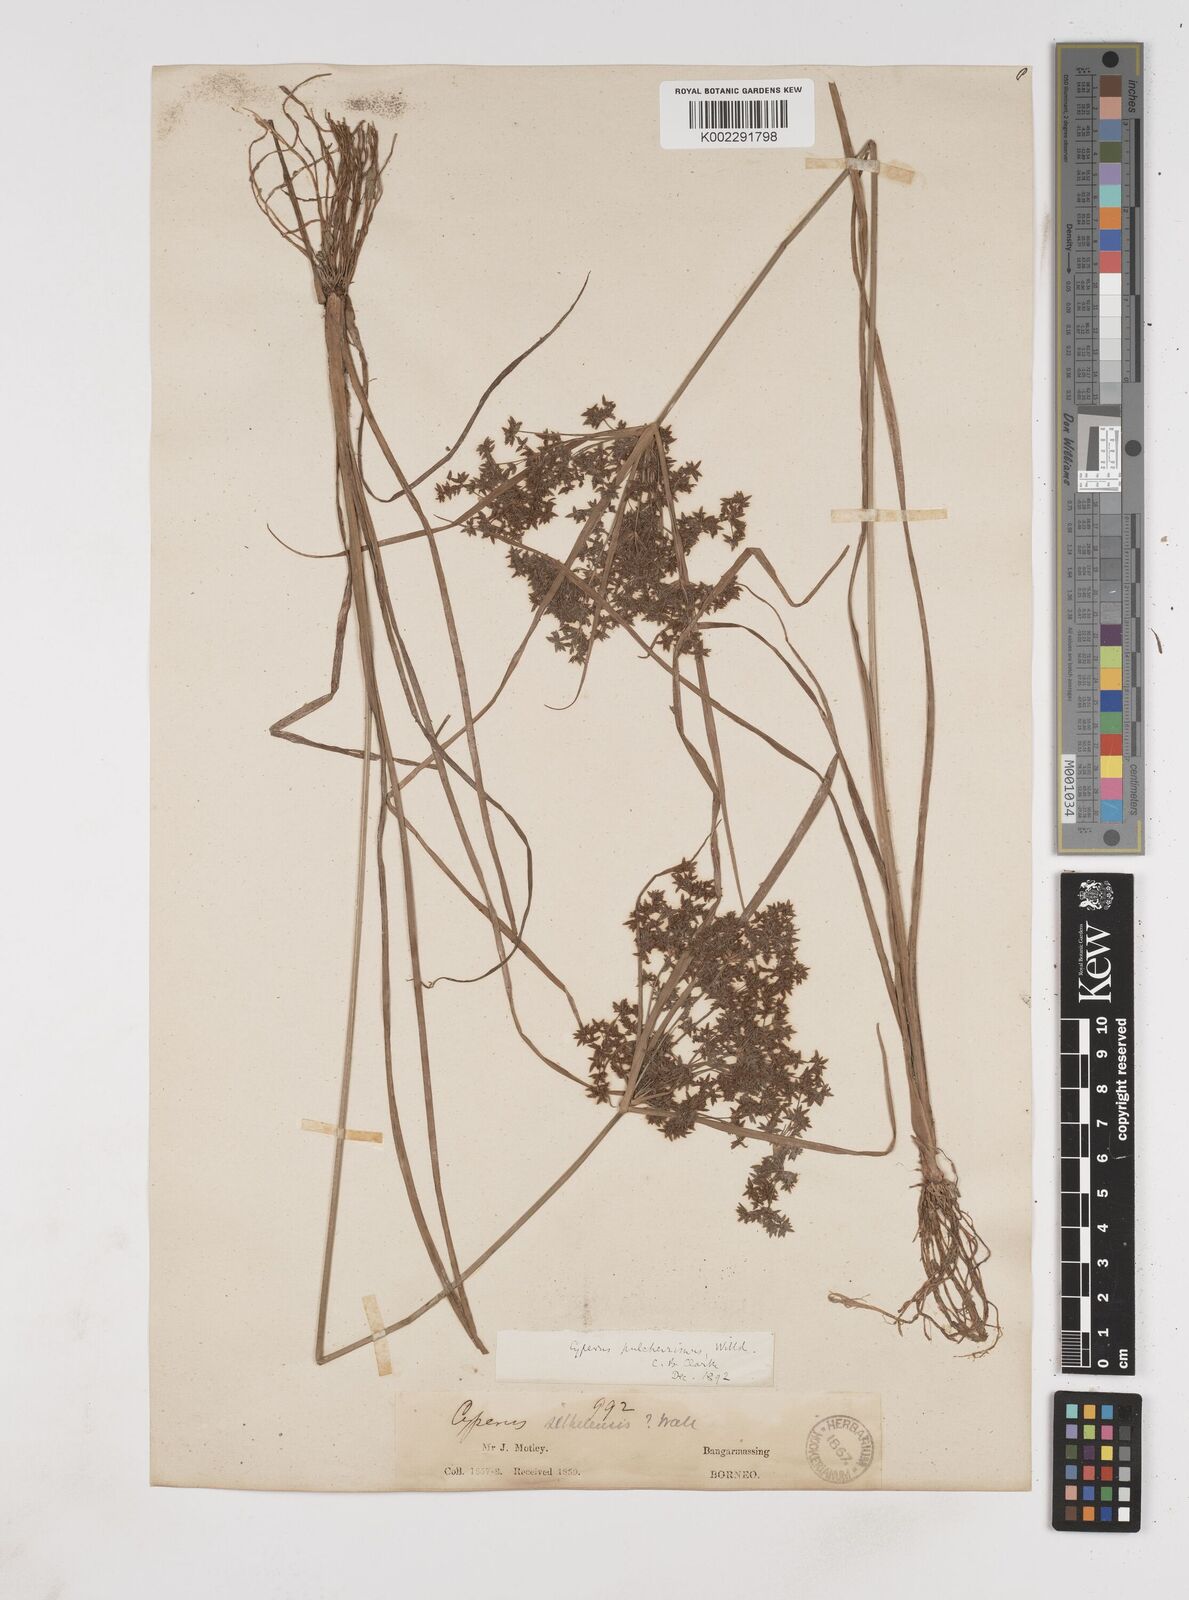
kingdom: Plantae
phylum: Tracheophyta
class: Liliopsida
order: Poales
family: Cyperaceae
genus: Cyperus
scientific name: Cyperus pulcherrimus
